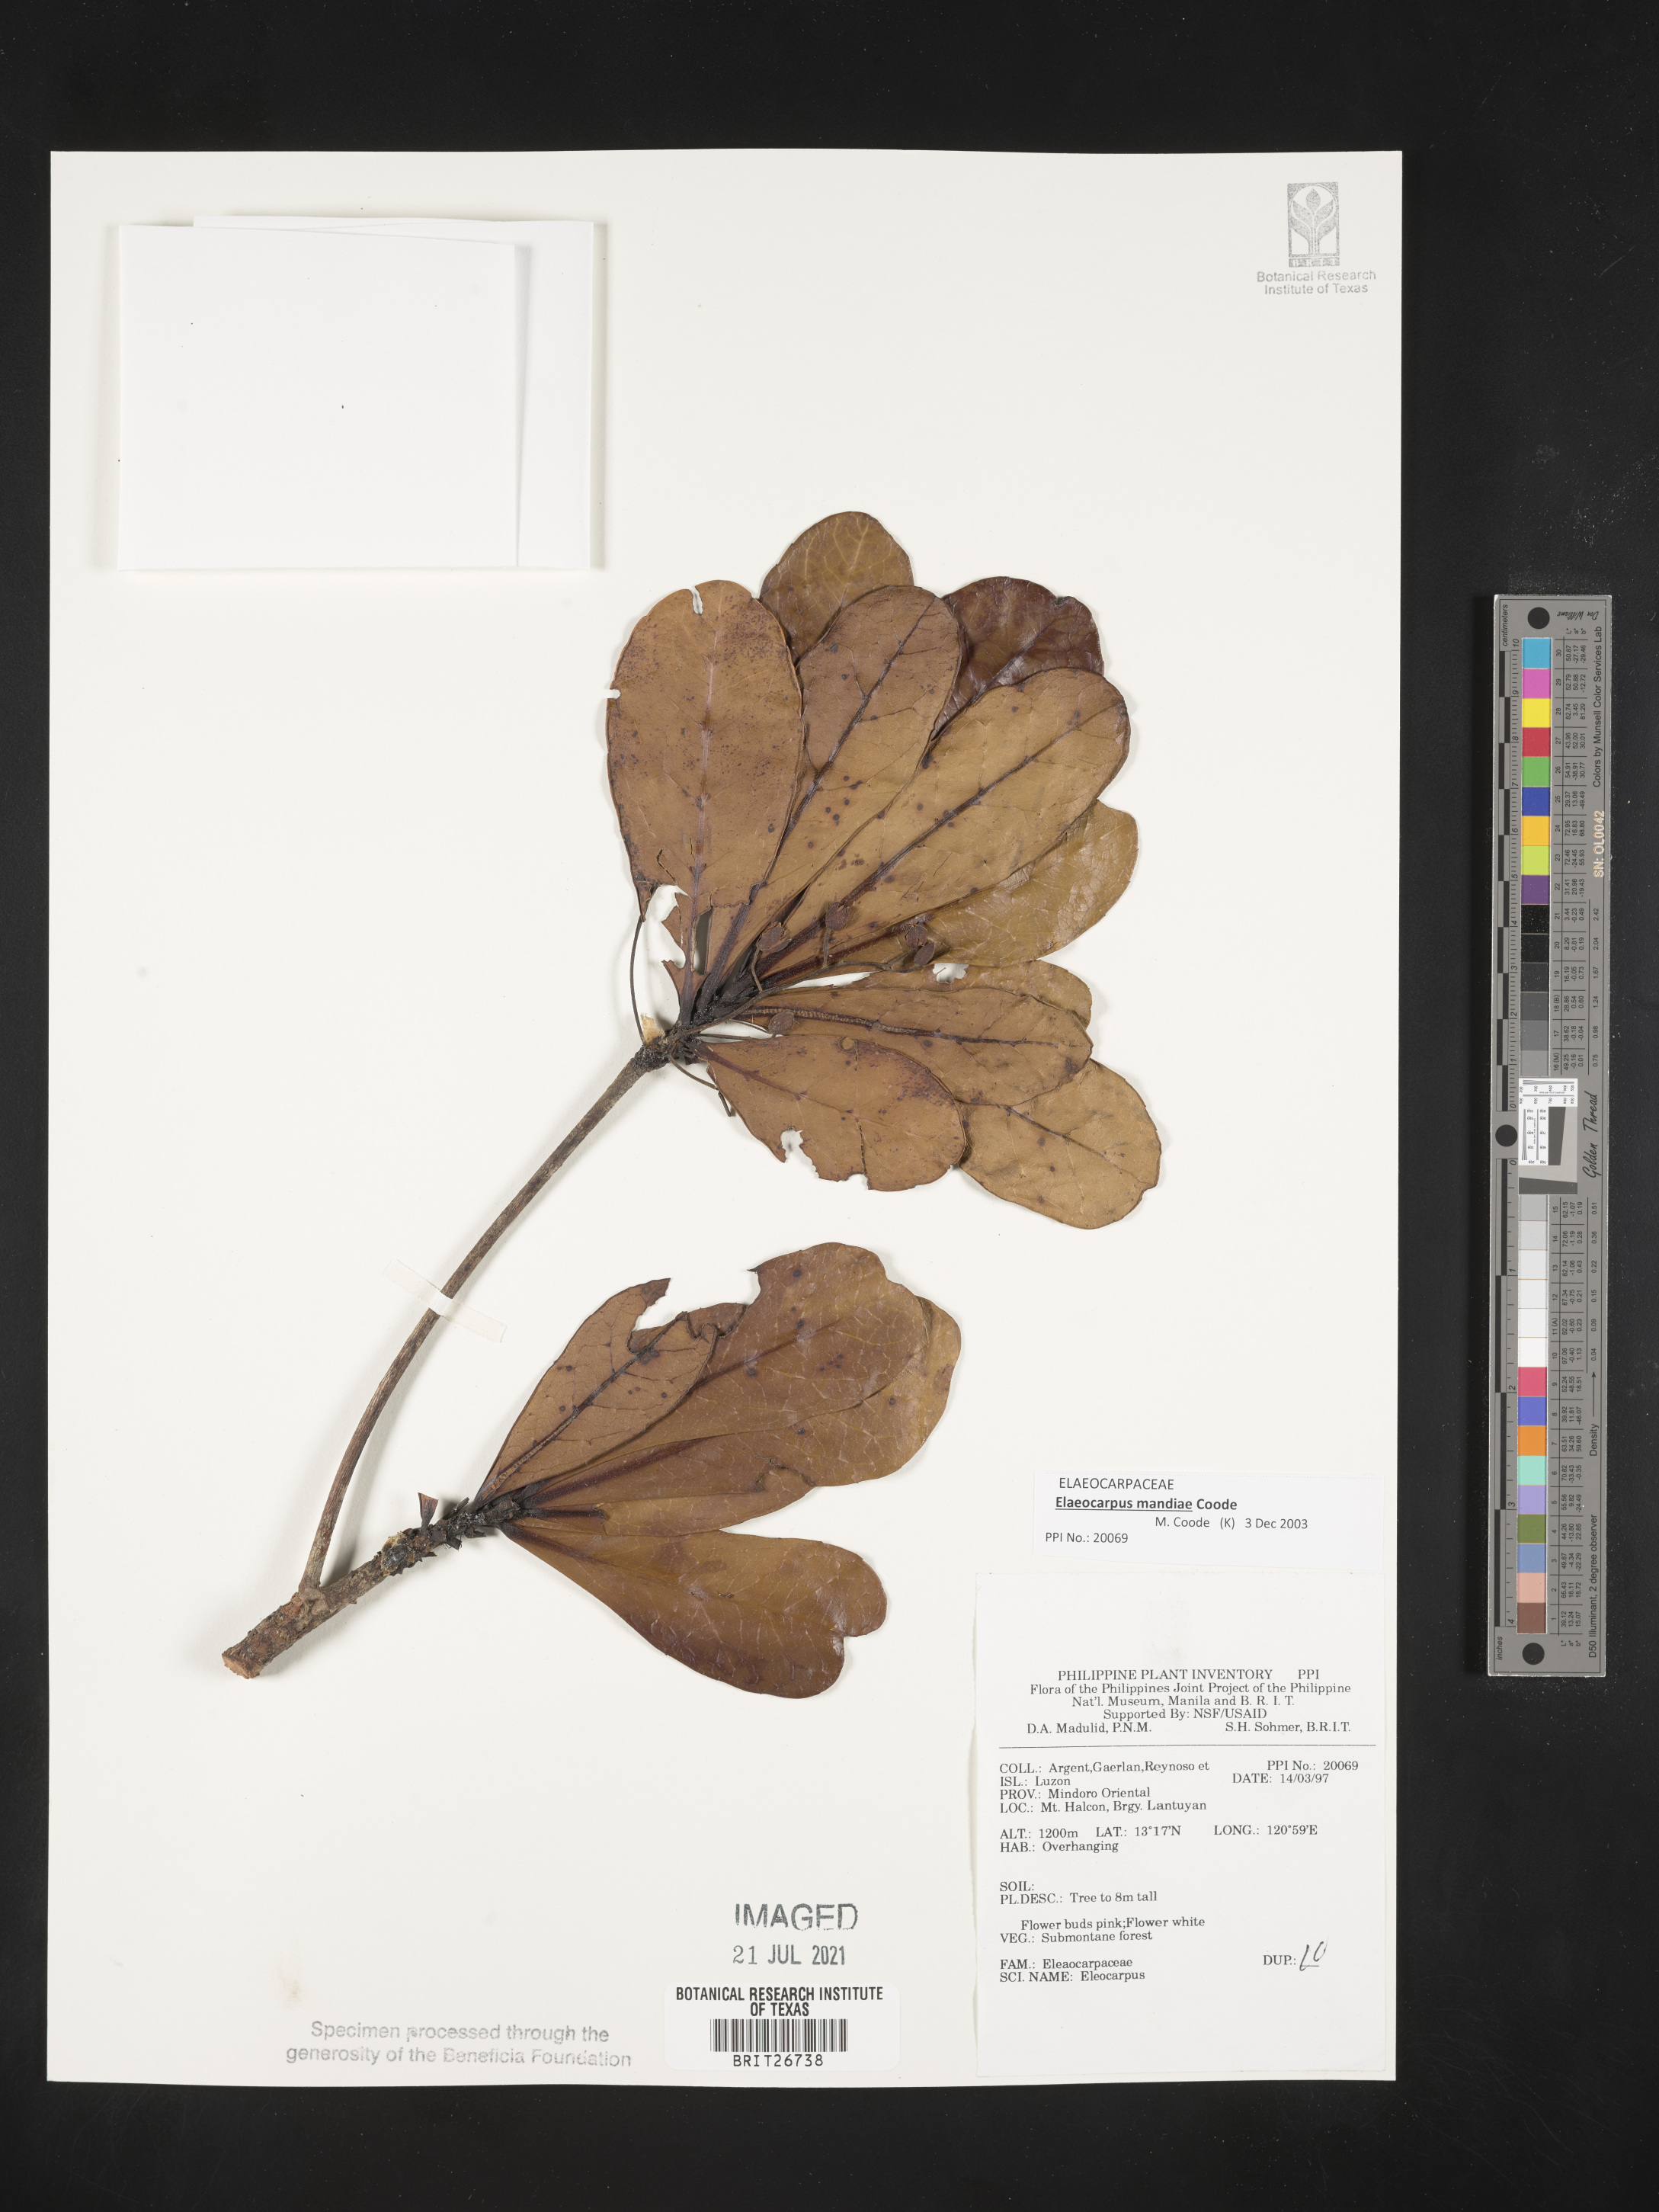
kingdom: Plantae
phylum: Tracheophyta
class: Magnoliopsida
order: Oxalidales
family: Elaeocarpaceae
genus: Elaeocarpus
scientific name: Elaeocarpus mandiae
